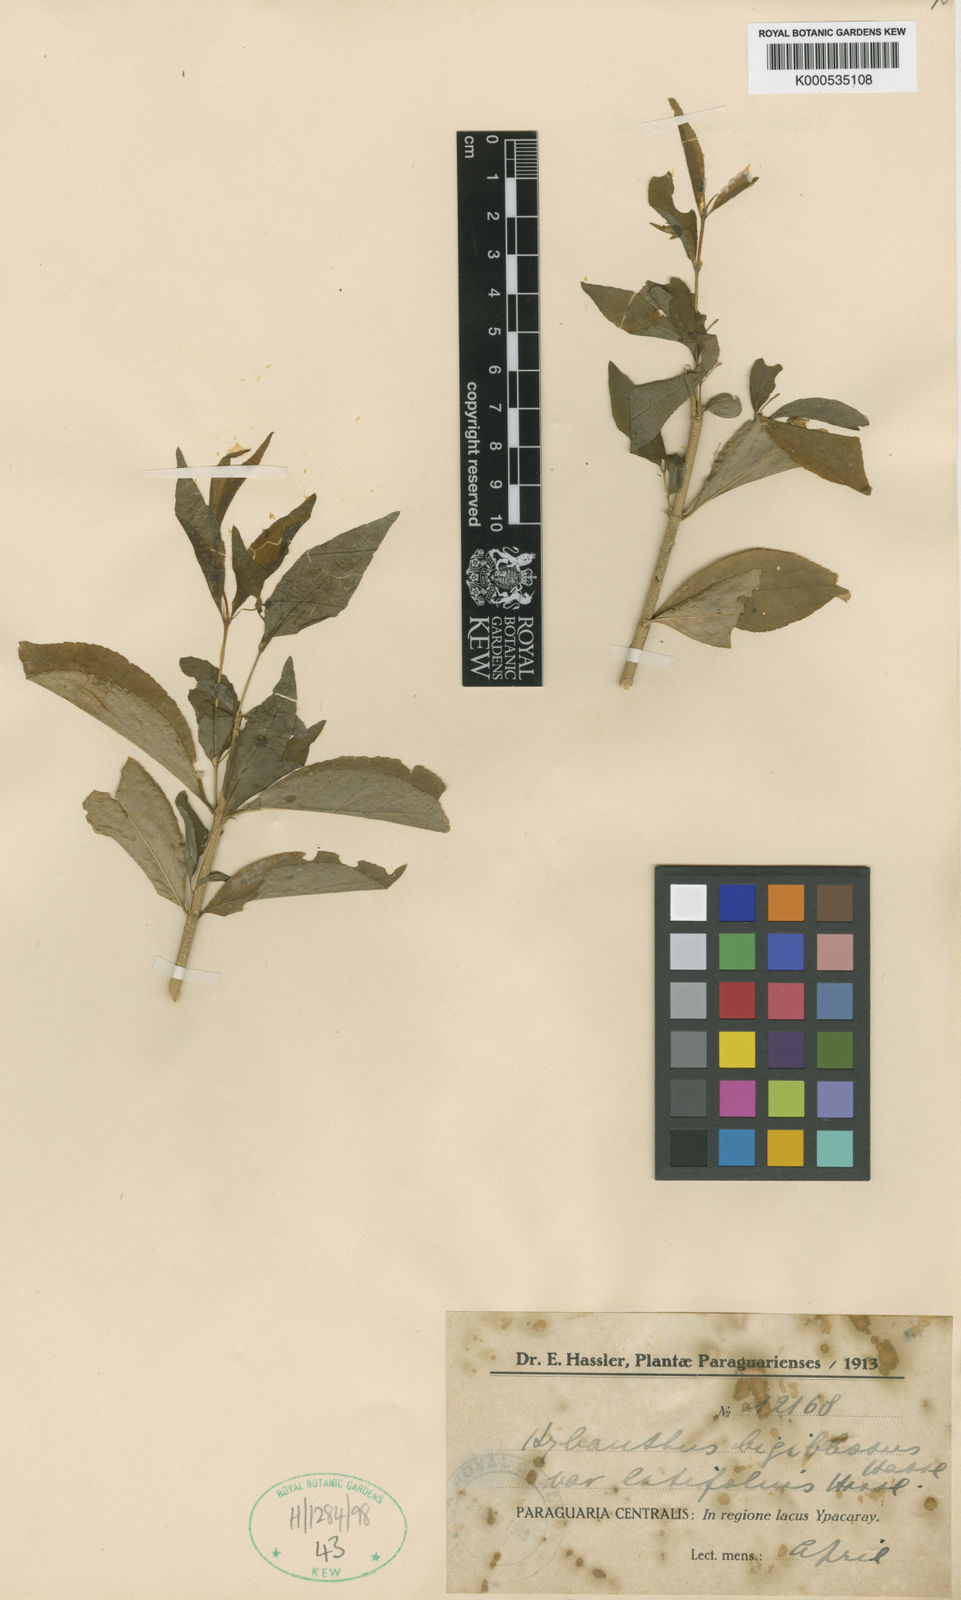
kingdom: Plantae
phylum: Tracheophyta
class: Magnoliopsida
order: Malpighiales
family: Violaceae
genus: Pombalia
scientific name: Pombalia bigibbosa
